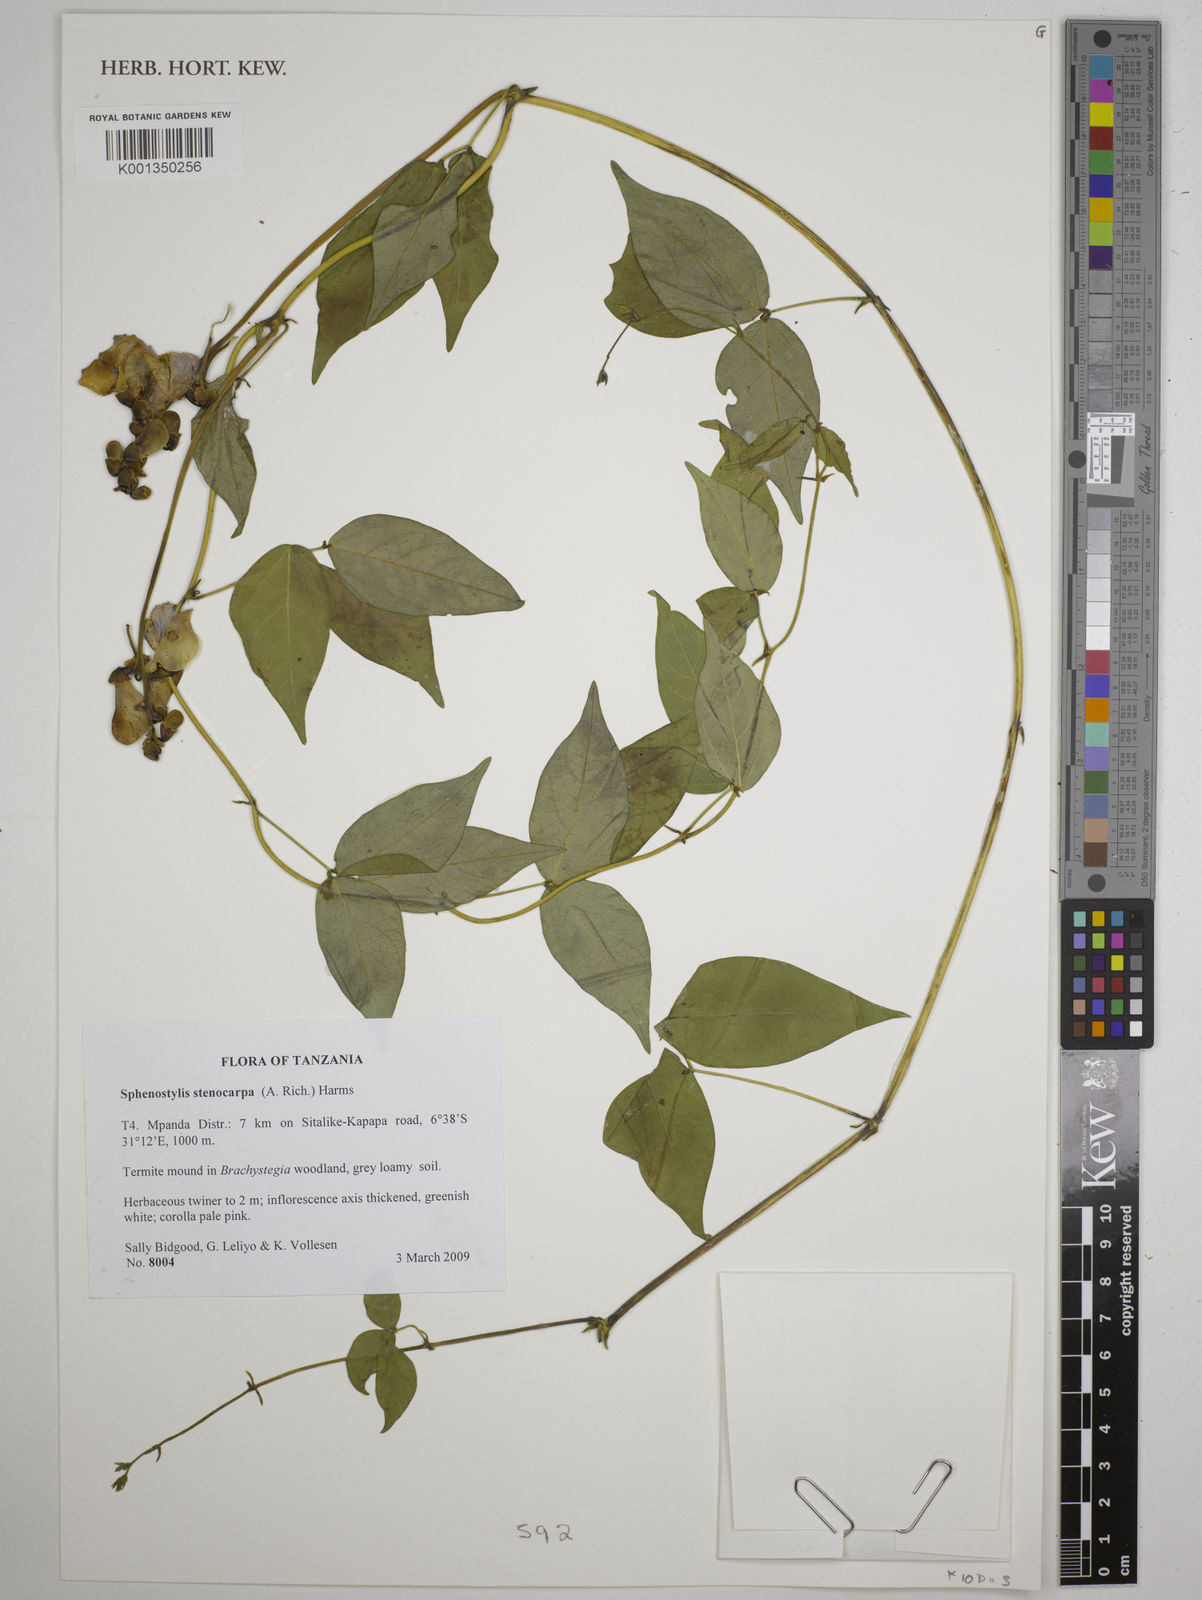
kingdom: Plantae
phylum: Tracheophyta
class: Magnoliopsida
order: Fabales
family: Fabaceae
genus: Sphenostylis
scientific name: Sphenostylis stenocarpa
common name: Yam-pea
